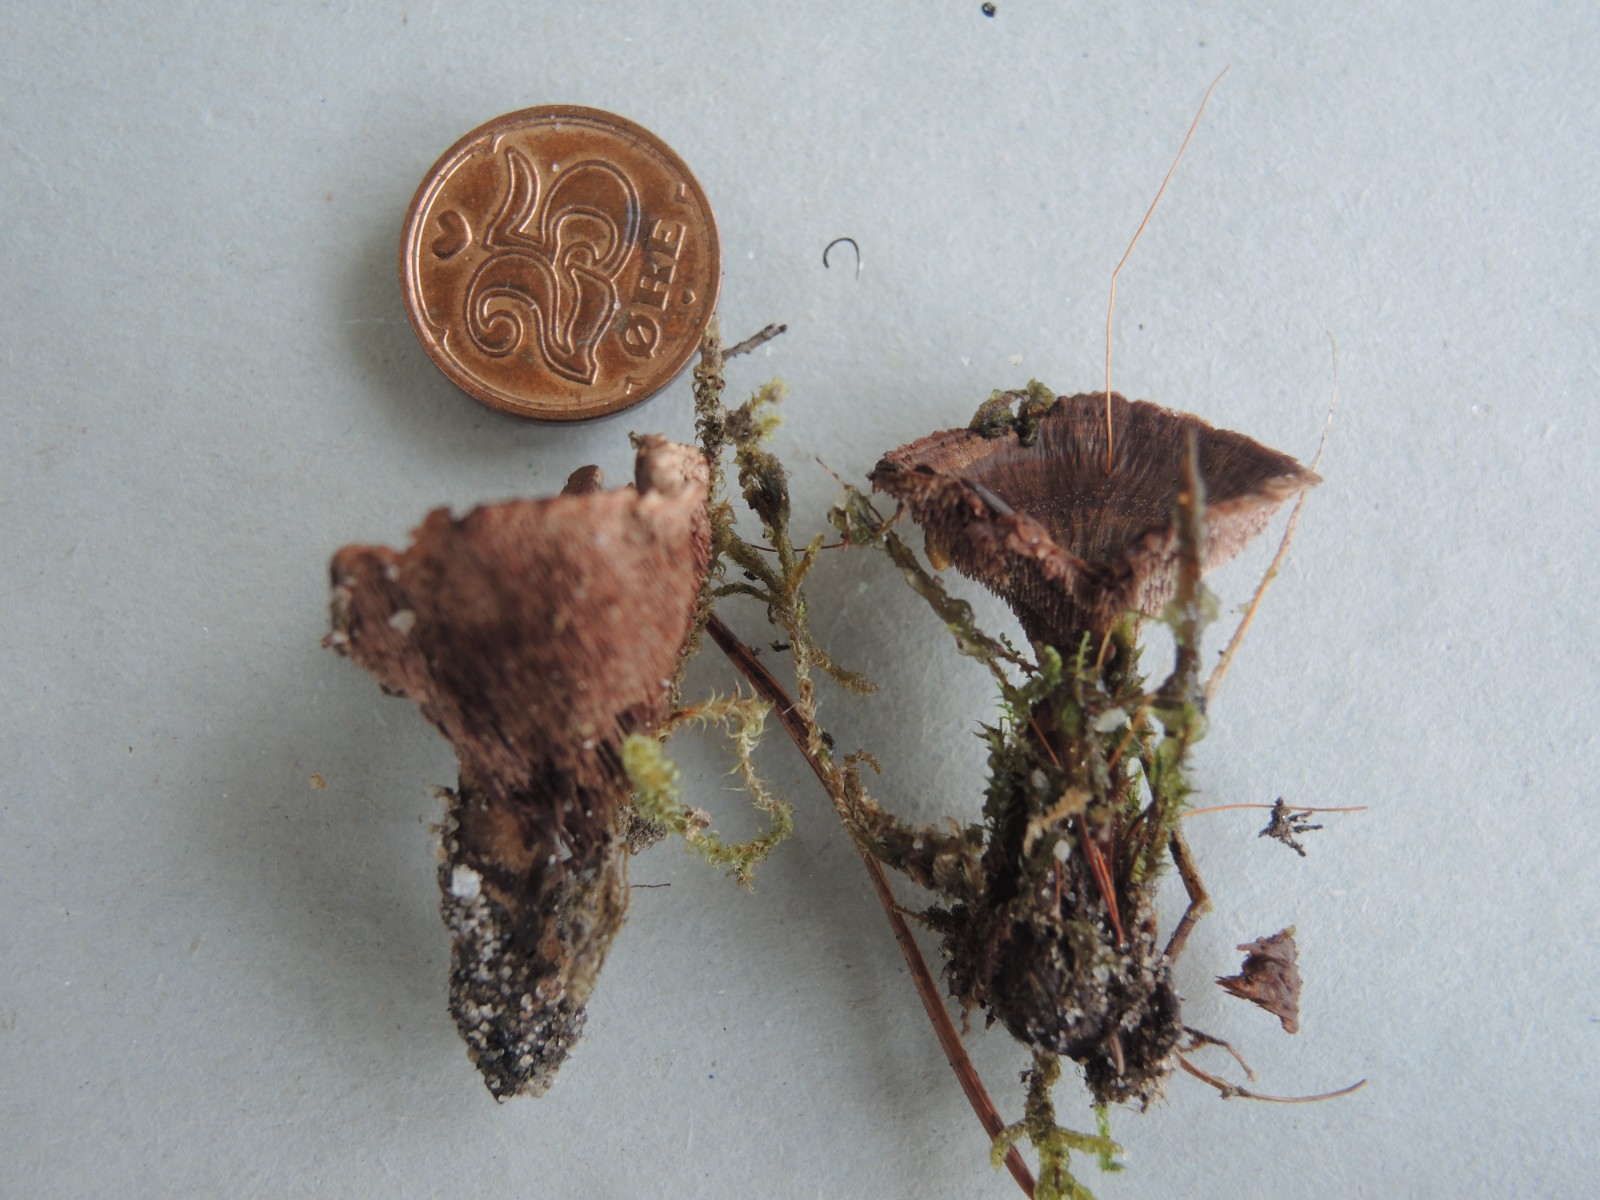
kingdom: Fungi
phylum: Basidiomycota
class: Agaricomycetes
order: Thelephorales
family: Bankeraceae
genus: Hydnellum
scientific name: Hydnellum concrescens
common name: Zoned tooth
